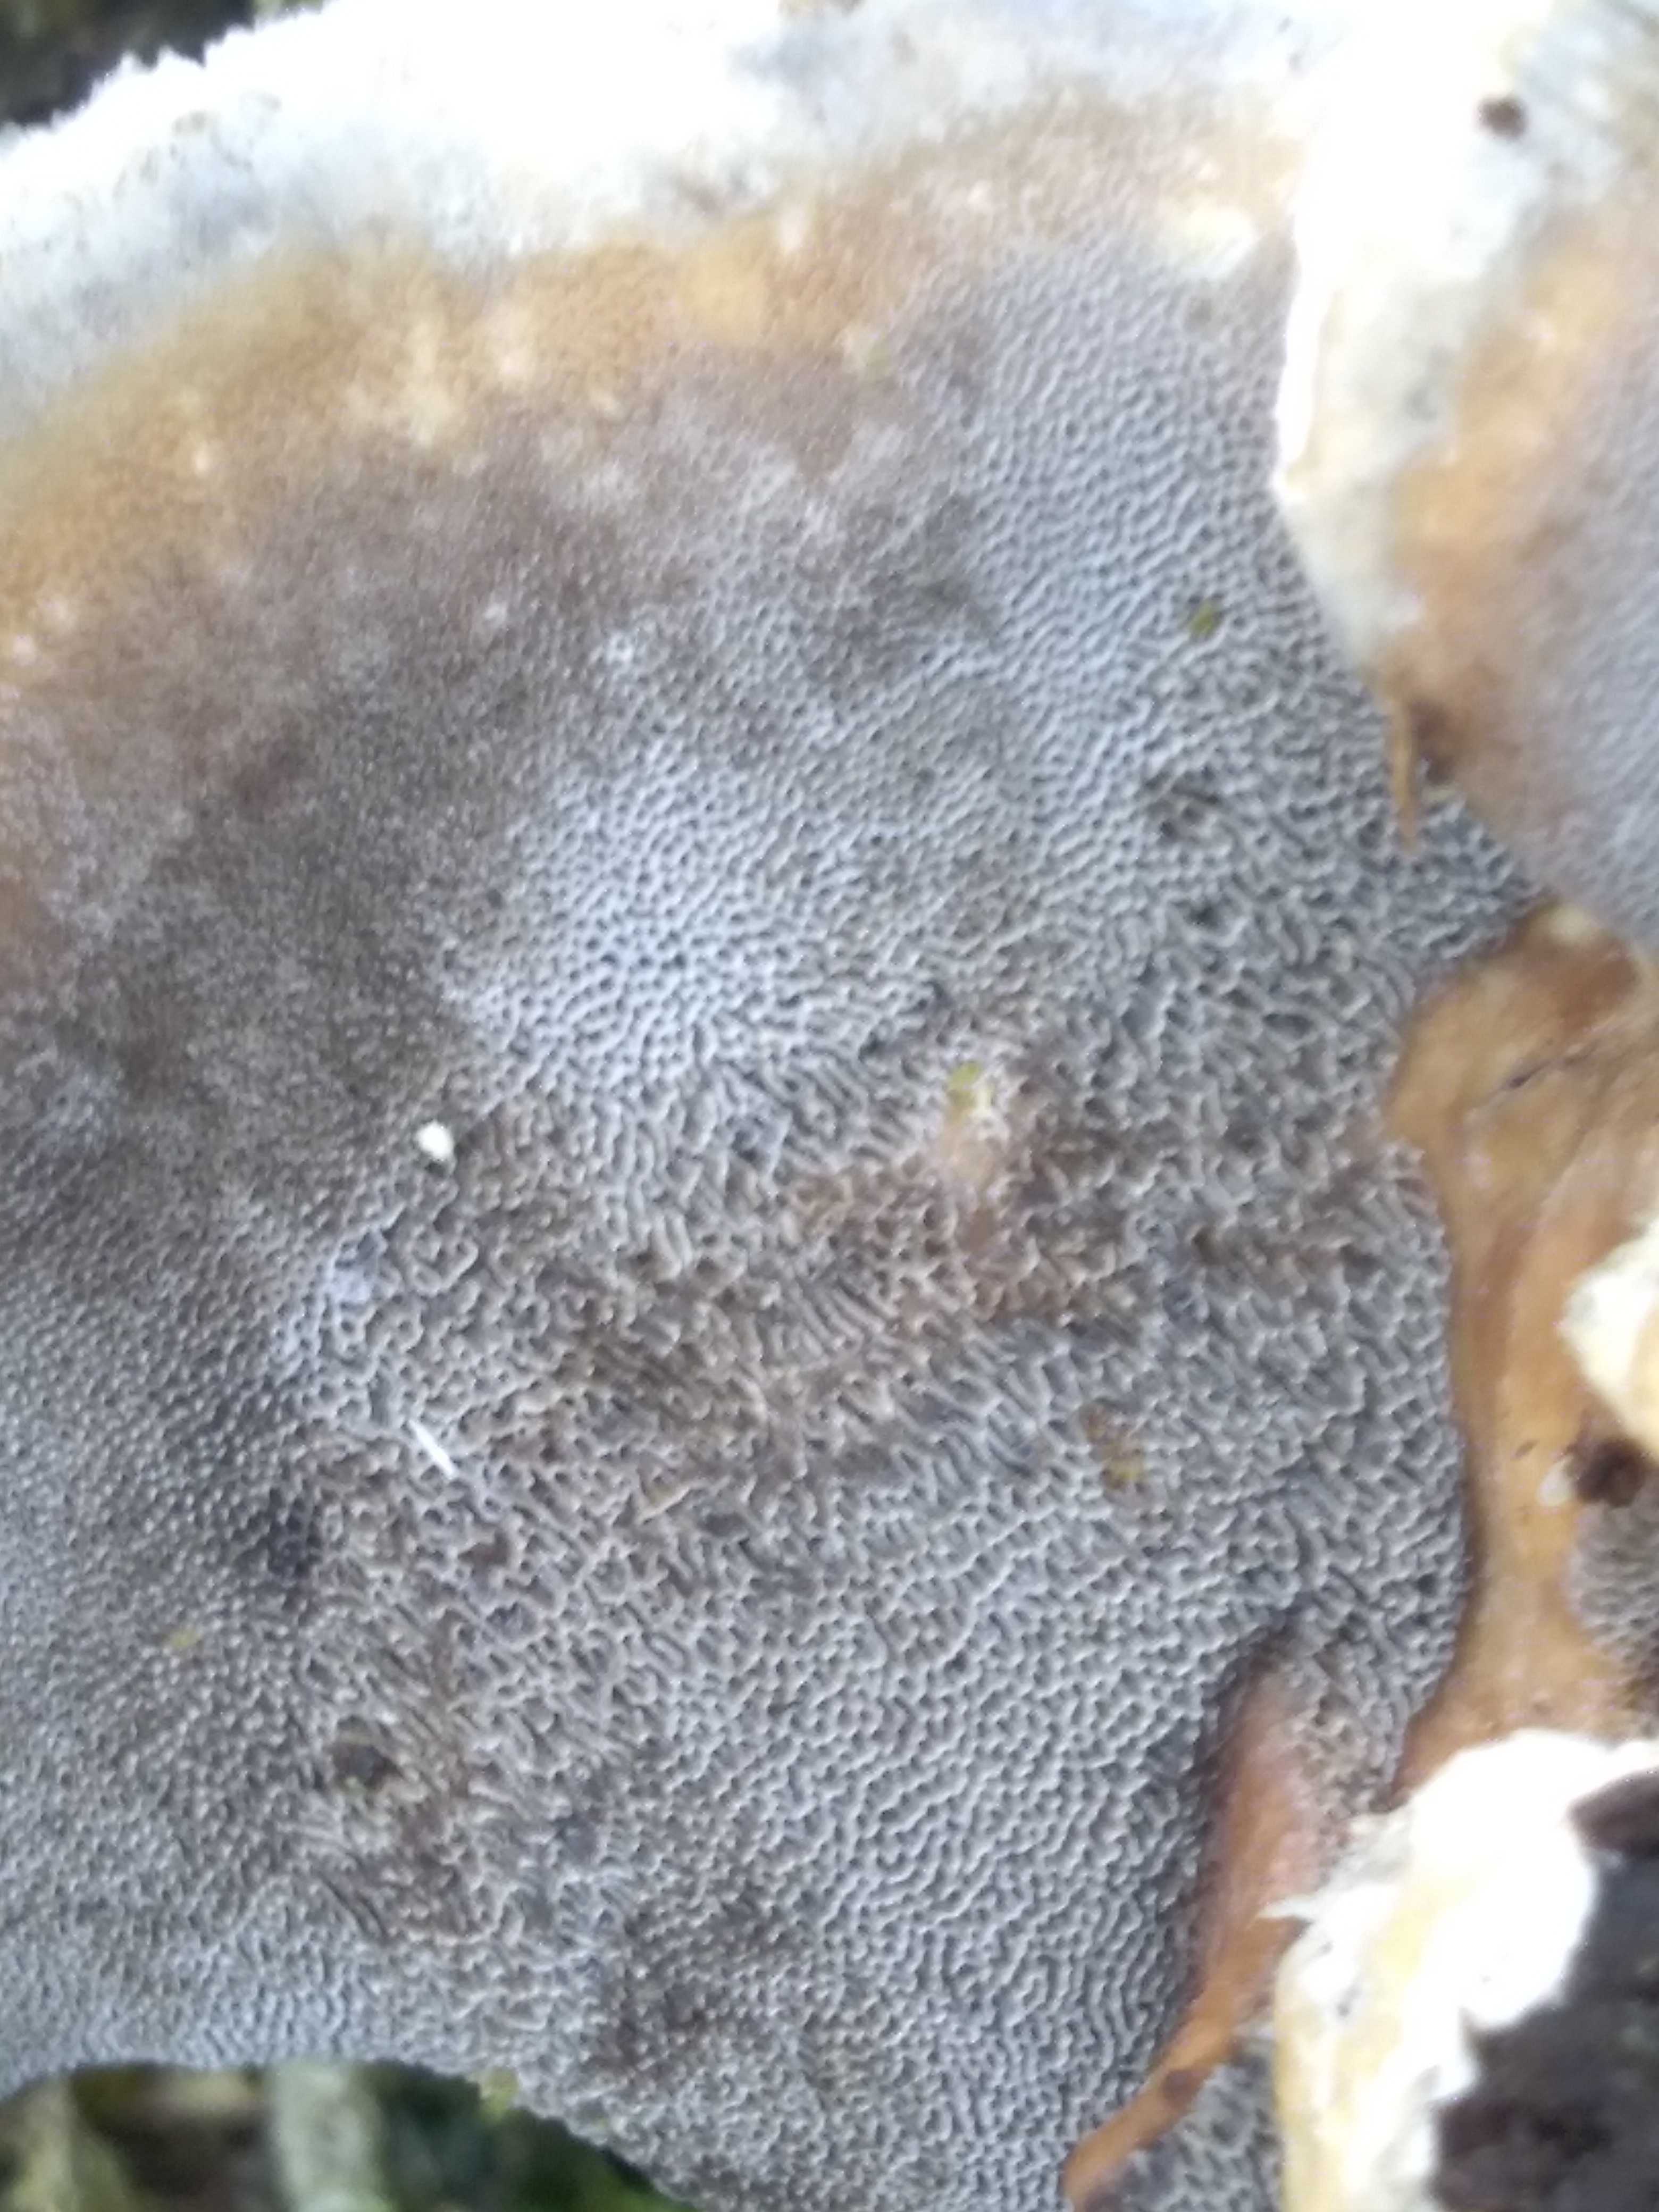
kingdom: Fungi
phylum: Basidiomycota
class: Agaricomycetes
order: Polyporales
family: Phanerochaetaceae
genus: Bjerkandera
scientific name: Bjerkandera adusta
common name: sveden sodporesvamp
